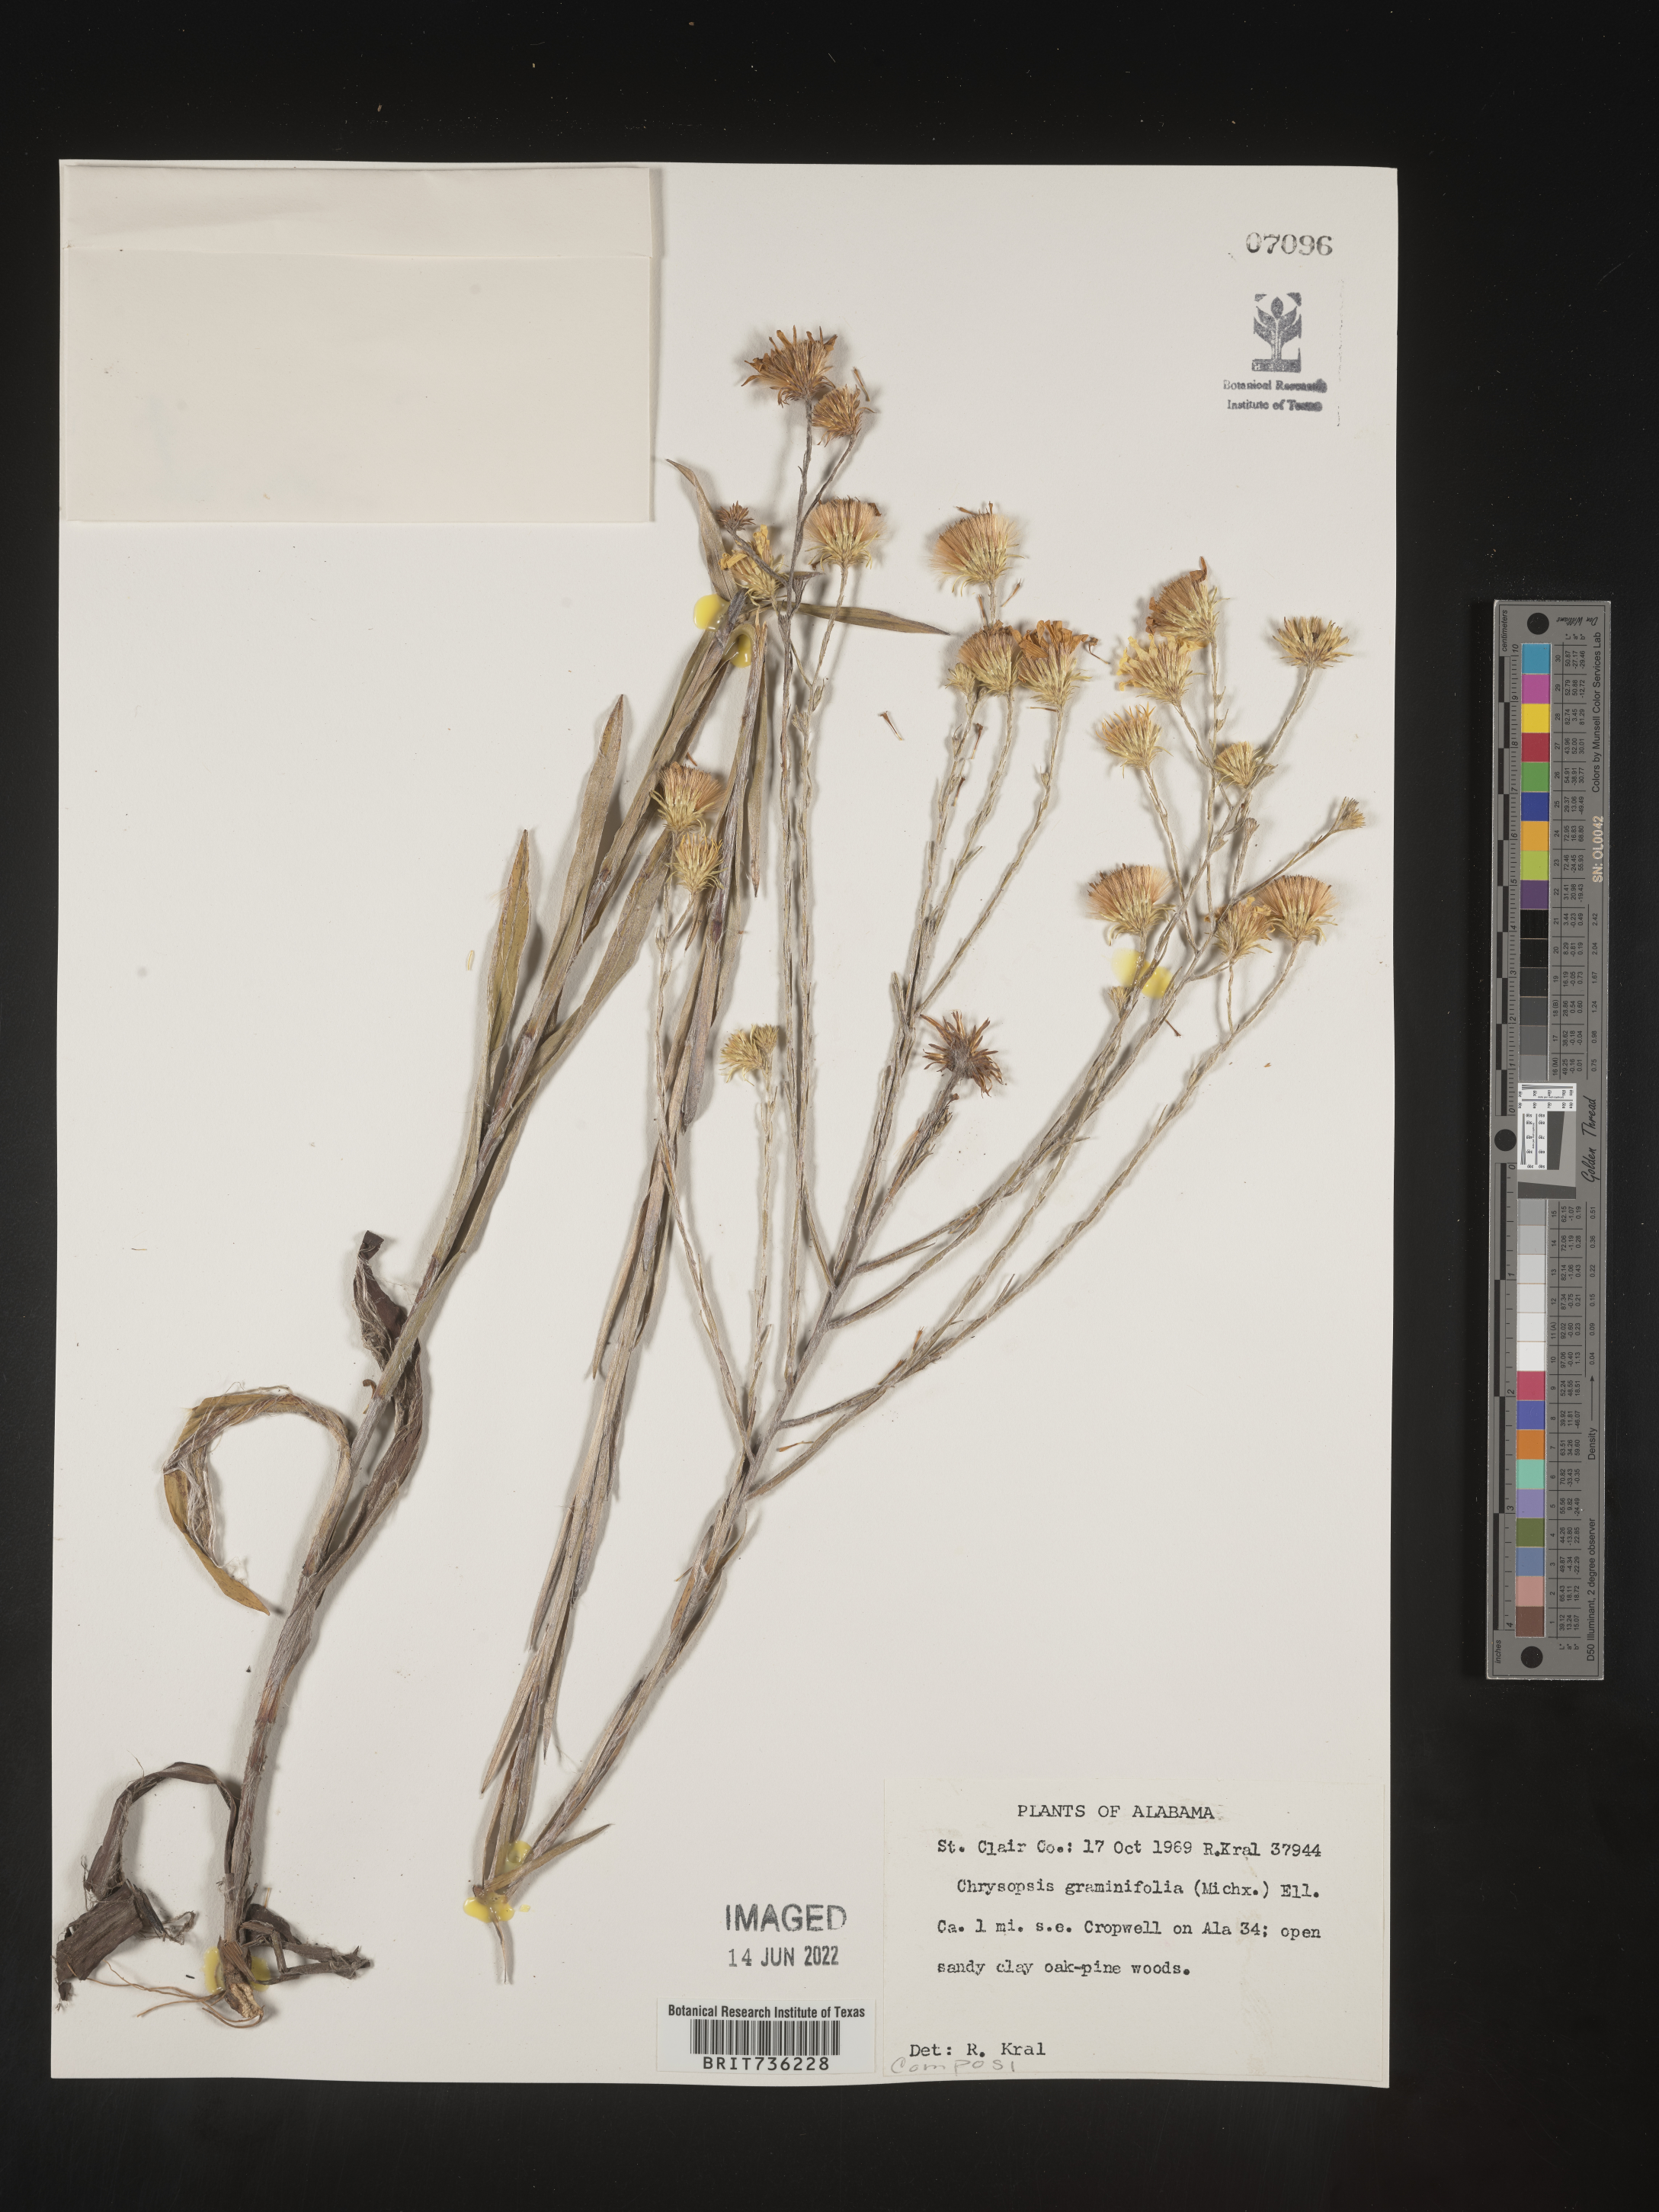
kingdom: Plantae
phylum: Tracheophyta
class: Magnoliopsida
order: Asterales
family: Asteraceae
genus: Pityopsis
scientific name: Pityopsis graminifolia
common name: Grass-leaf golden-aster
